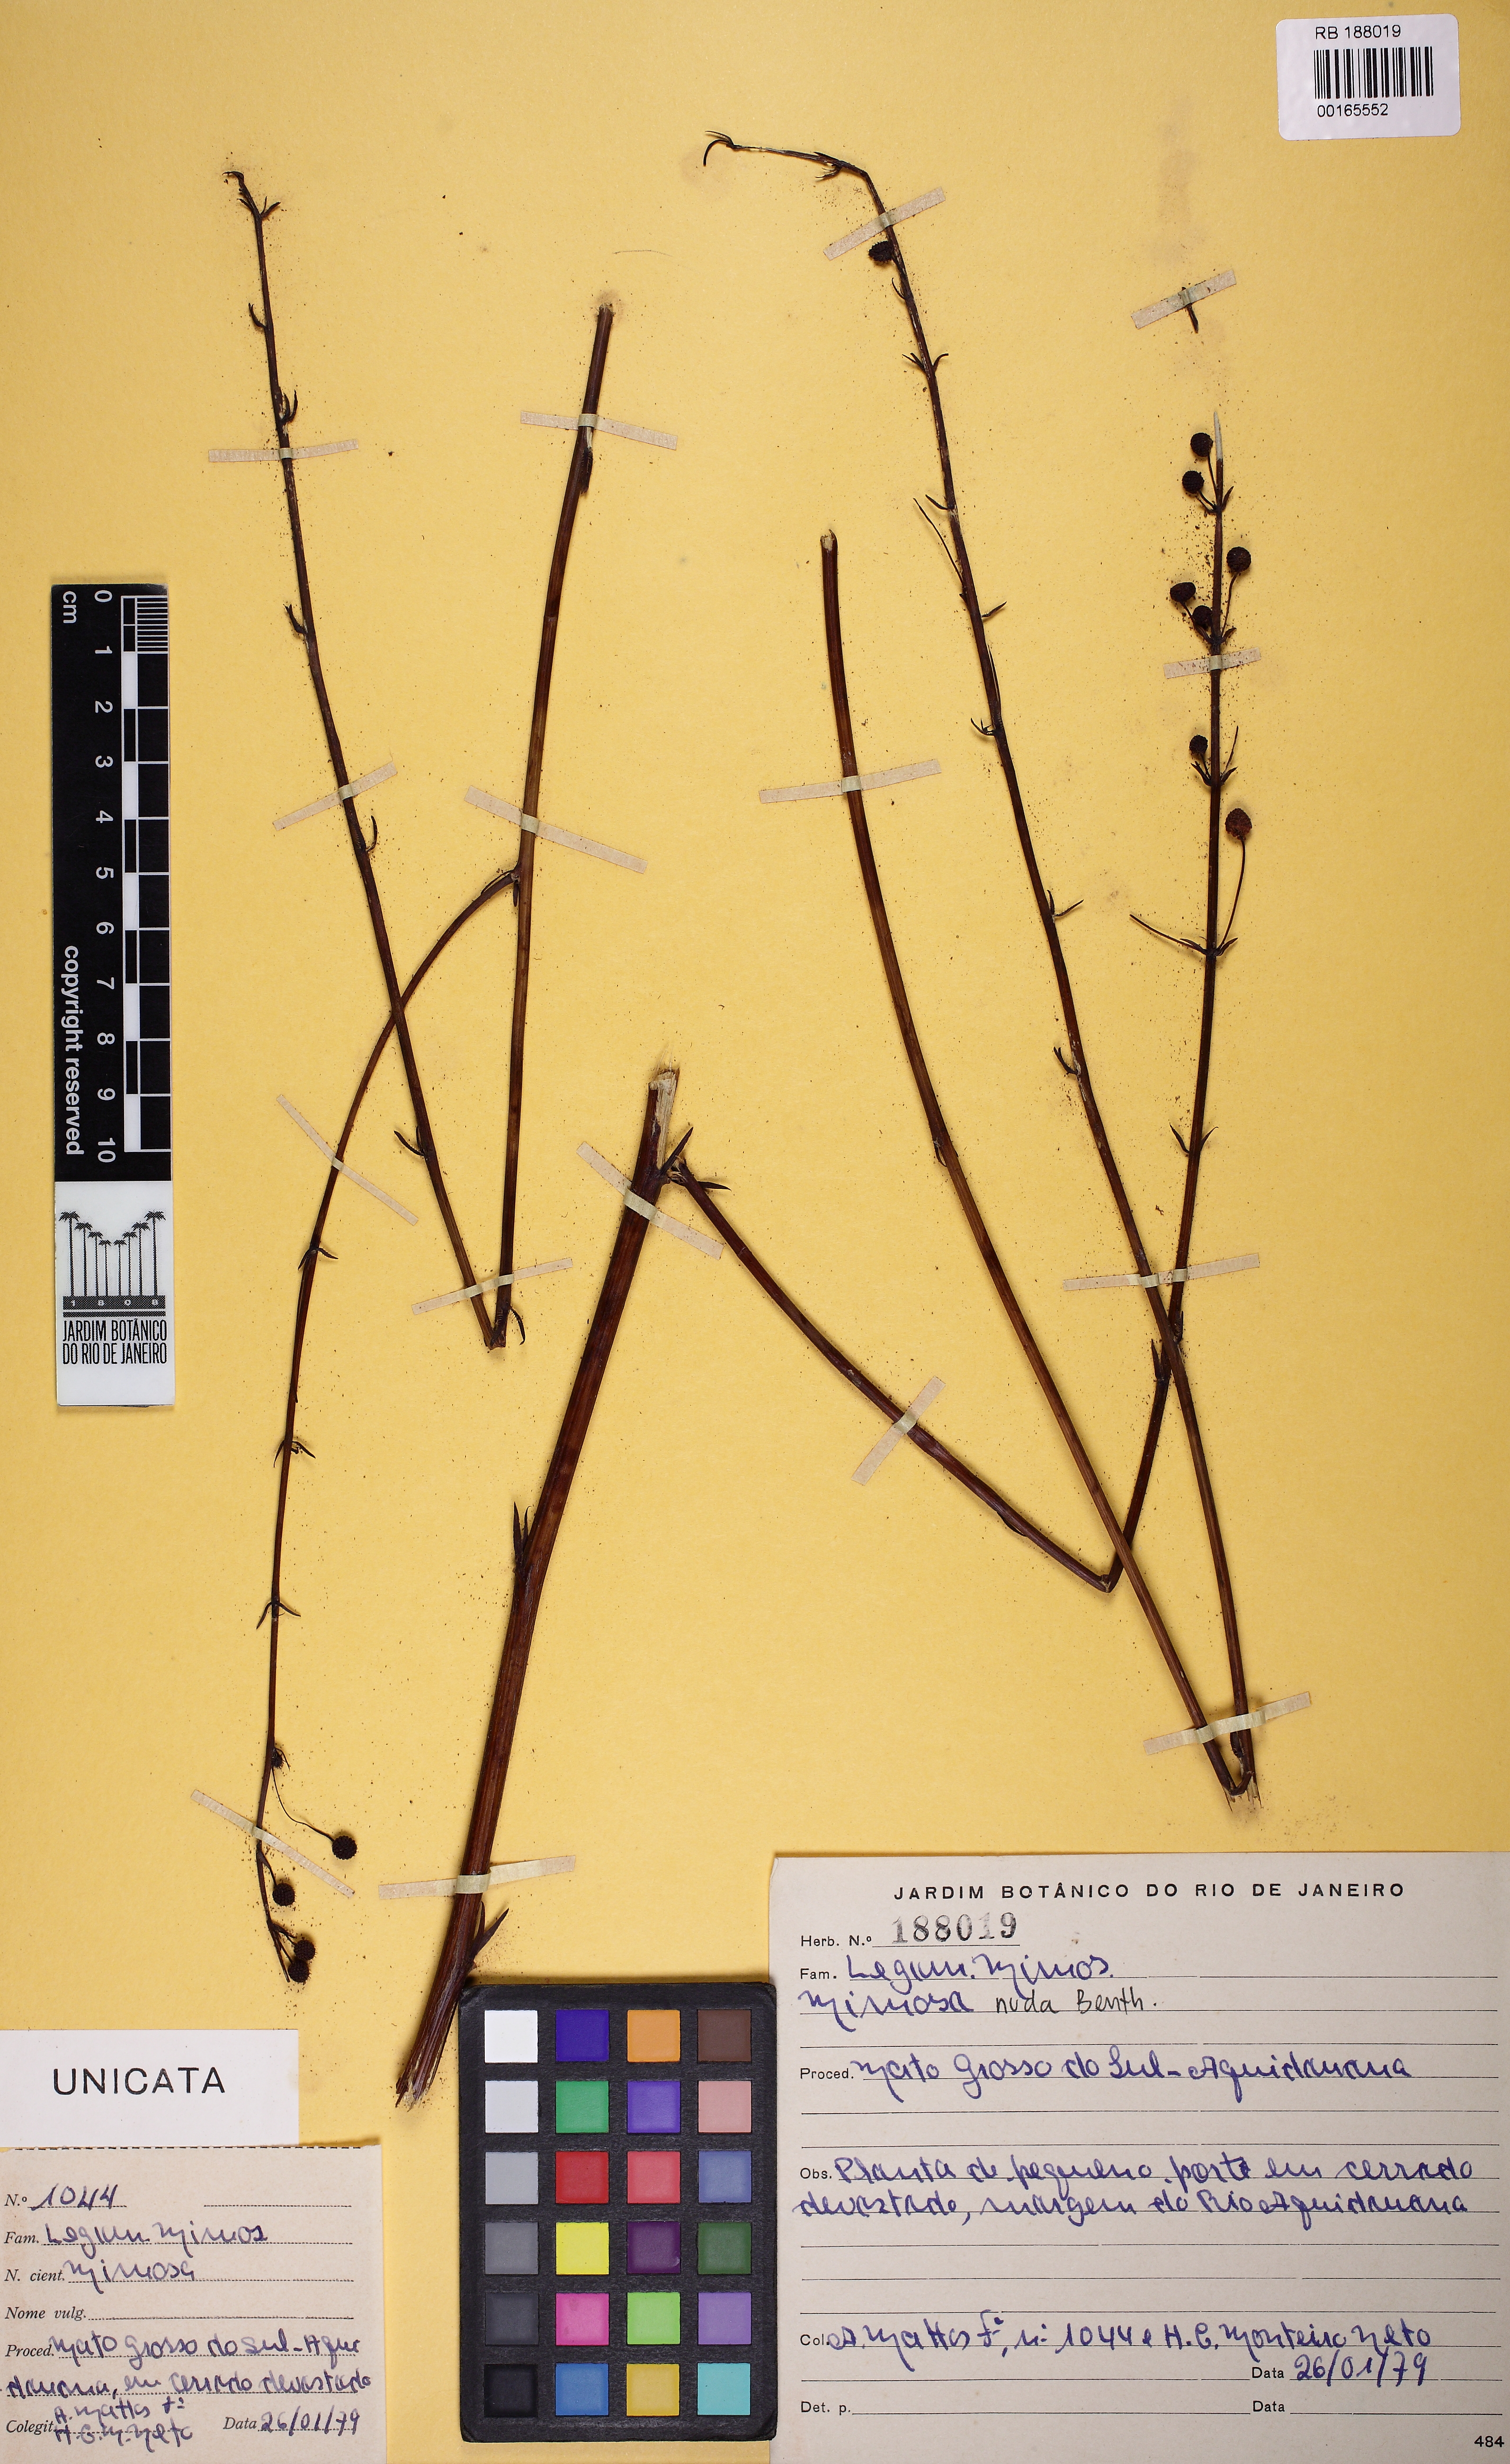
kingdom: Plantae
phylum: Tracheophyta
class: Magnoliopsida
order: Fabales
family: Fabaceae
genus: Mimosa
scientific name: Mimosa debilis
